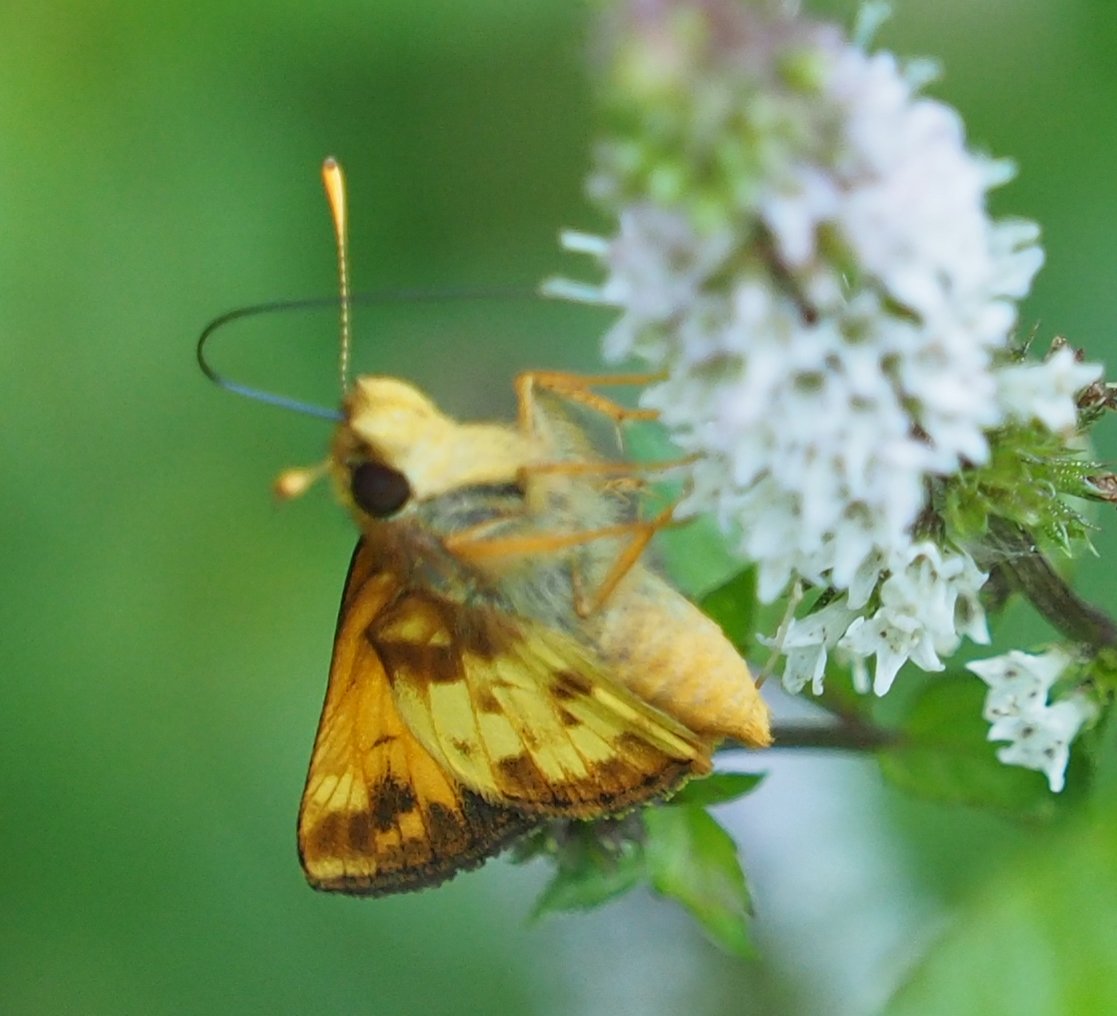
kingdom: Animalia
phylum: Arthropoda
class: Insecta
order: Lepidoptera
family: Hesperiidae
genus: Lon
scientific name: Lon zabulon
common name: Zabulon Skipper
